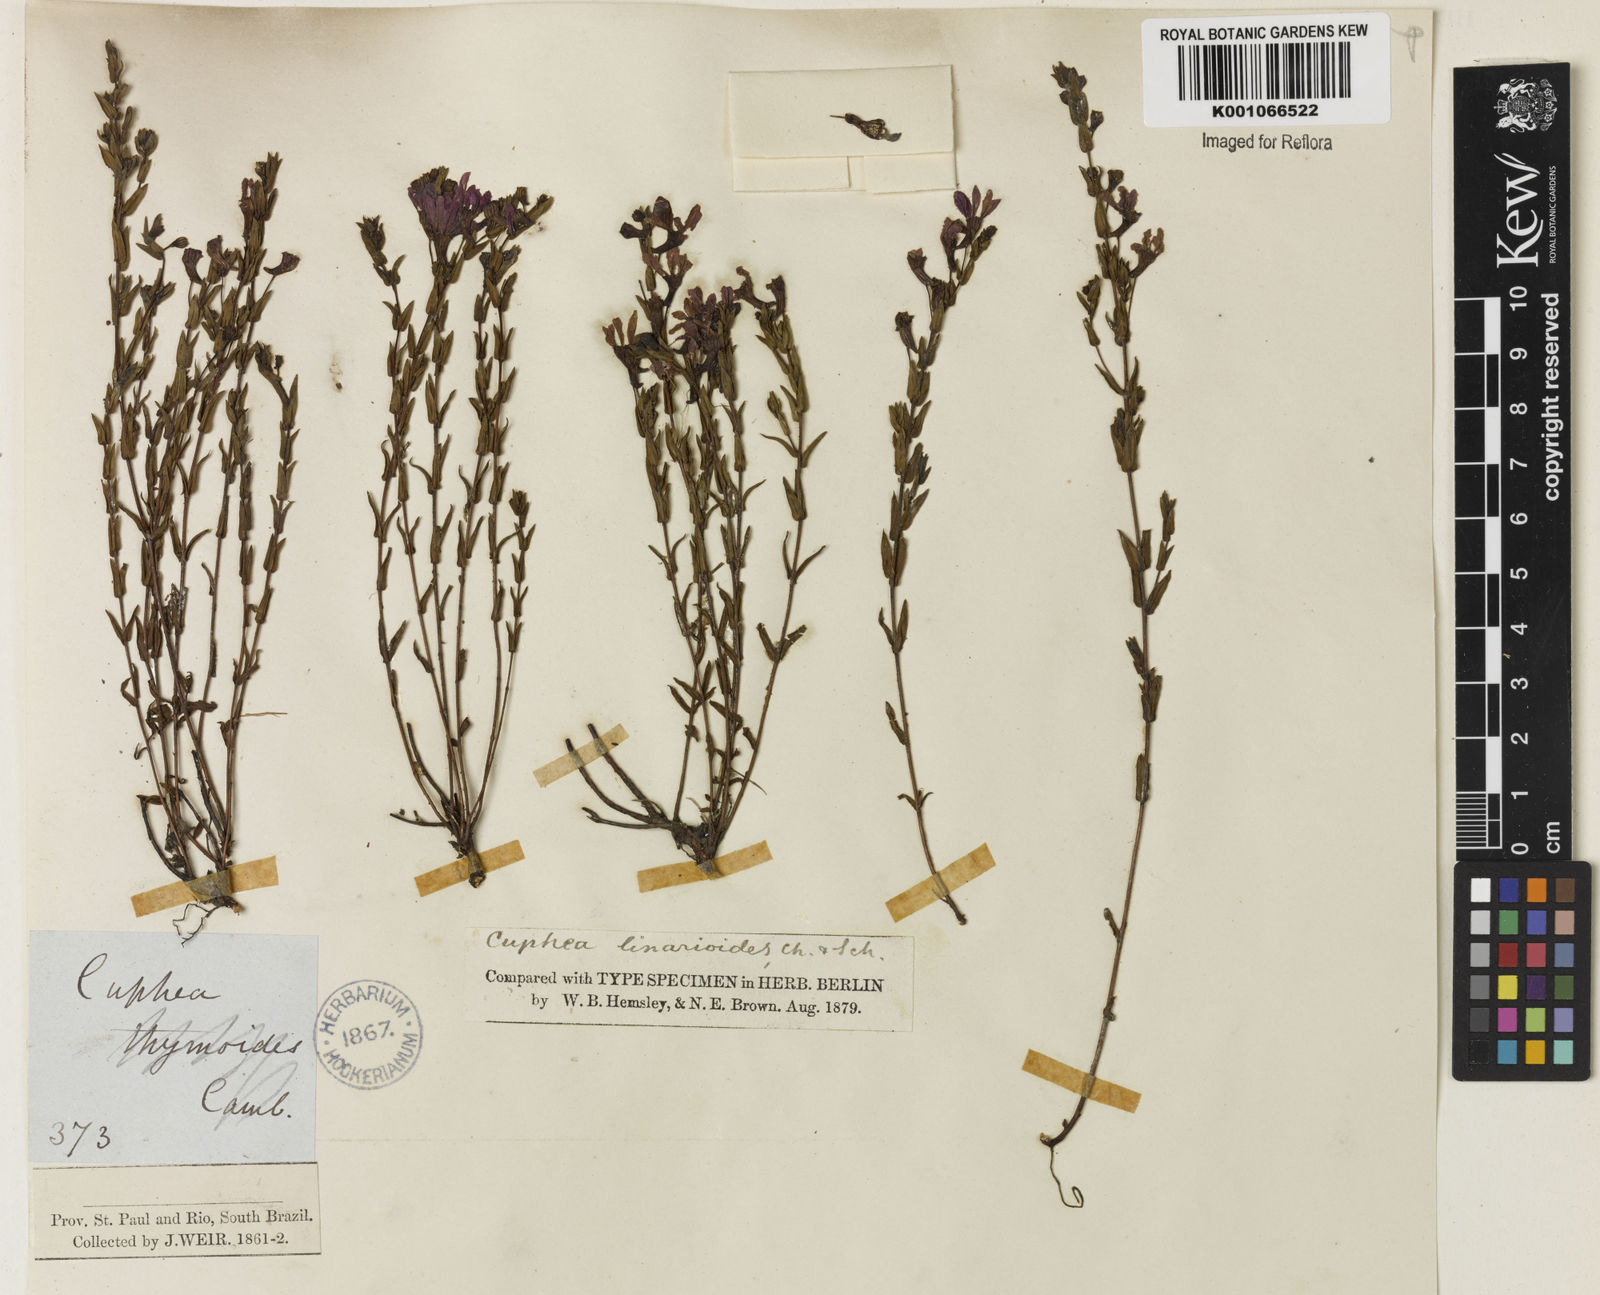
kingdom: Plantae
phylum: Tracheophyta
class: Magnoliopsida
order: Myrtales
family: Lythraceae
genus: Cuphea
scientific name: Cuphea linarioides
